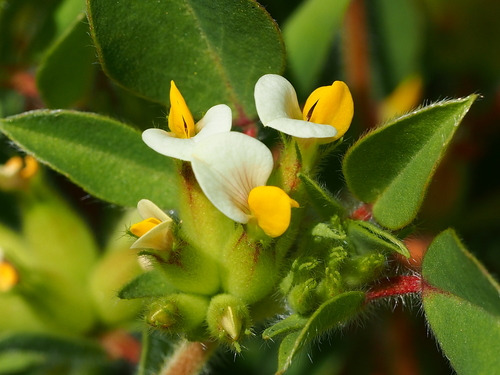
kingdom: Plantae
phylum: Tracheophyta
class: Magnoliopsida
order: Fabales
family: Fabaceae
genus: Tripodion
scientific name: Tripodion tetraphyllum
